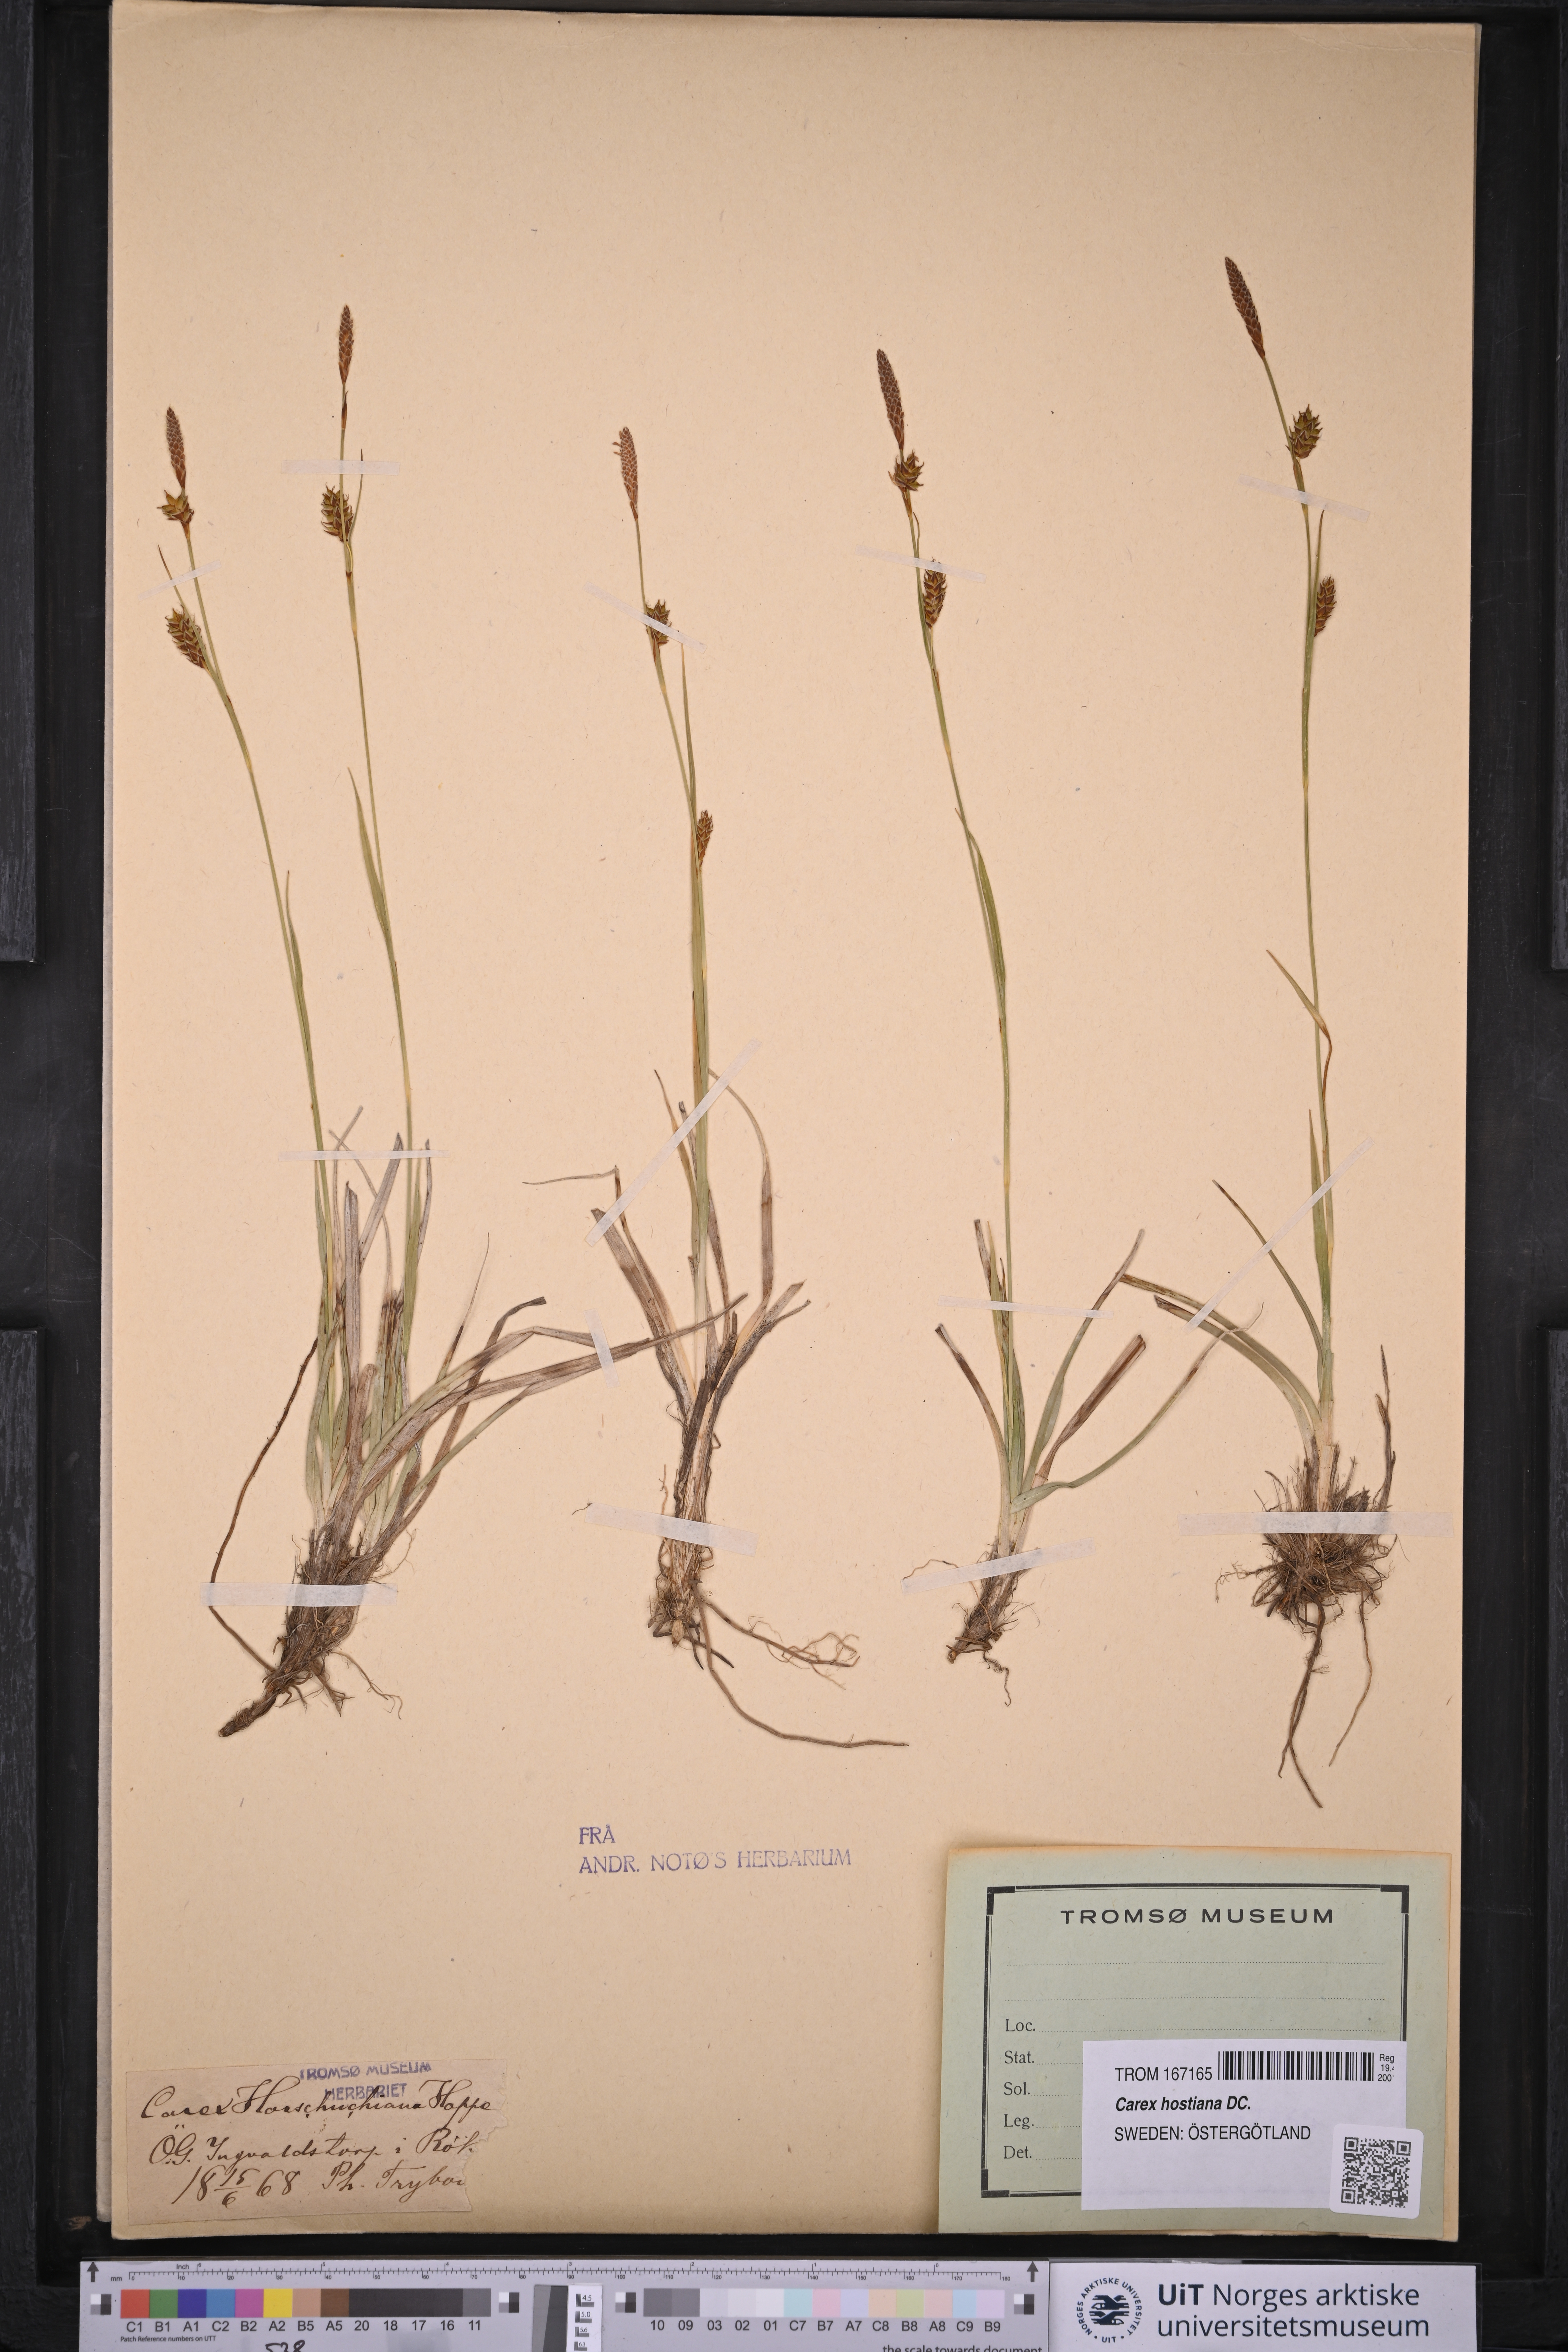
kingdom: Plantae
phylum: Tracheophyta
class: Liliopsida
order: Poales
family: Cyperaceae
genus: Carex
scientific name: Carex hostiana
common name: Tawny sedge
